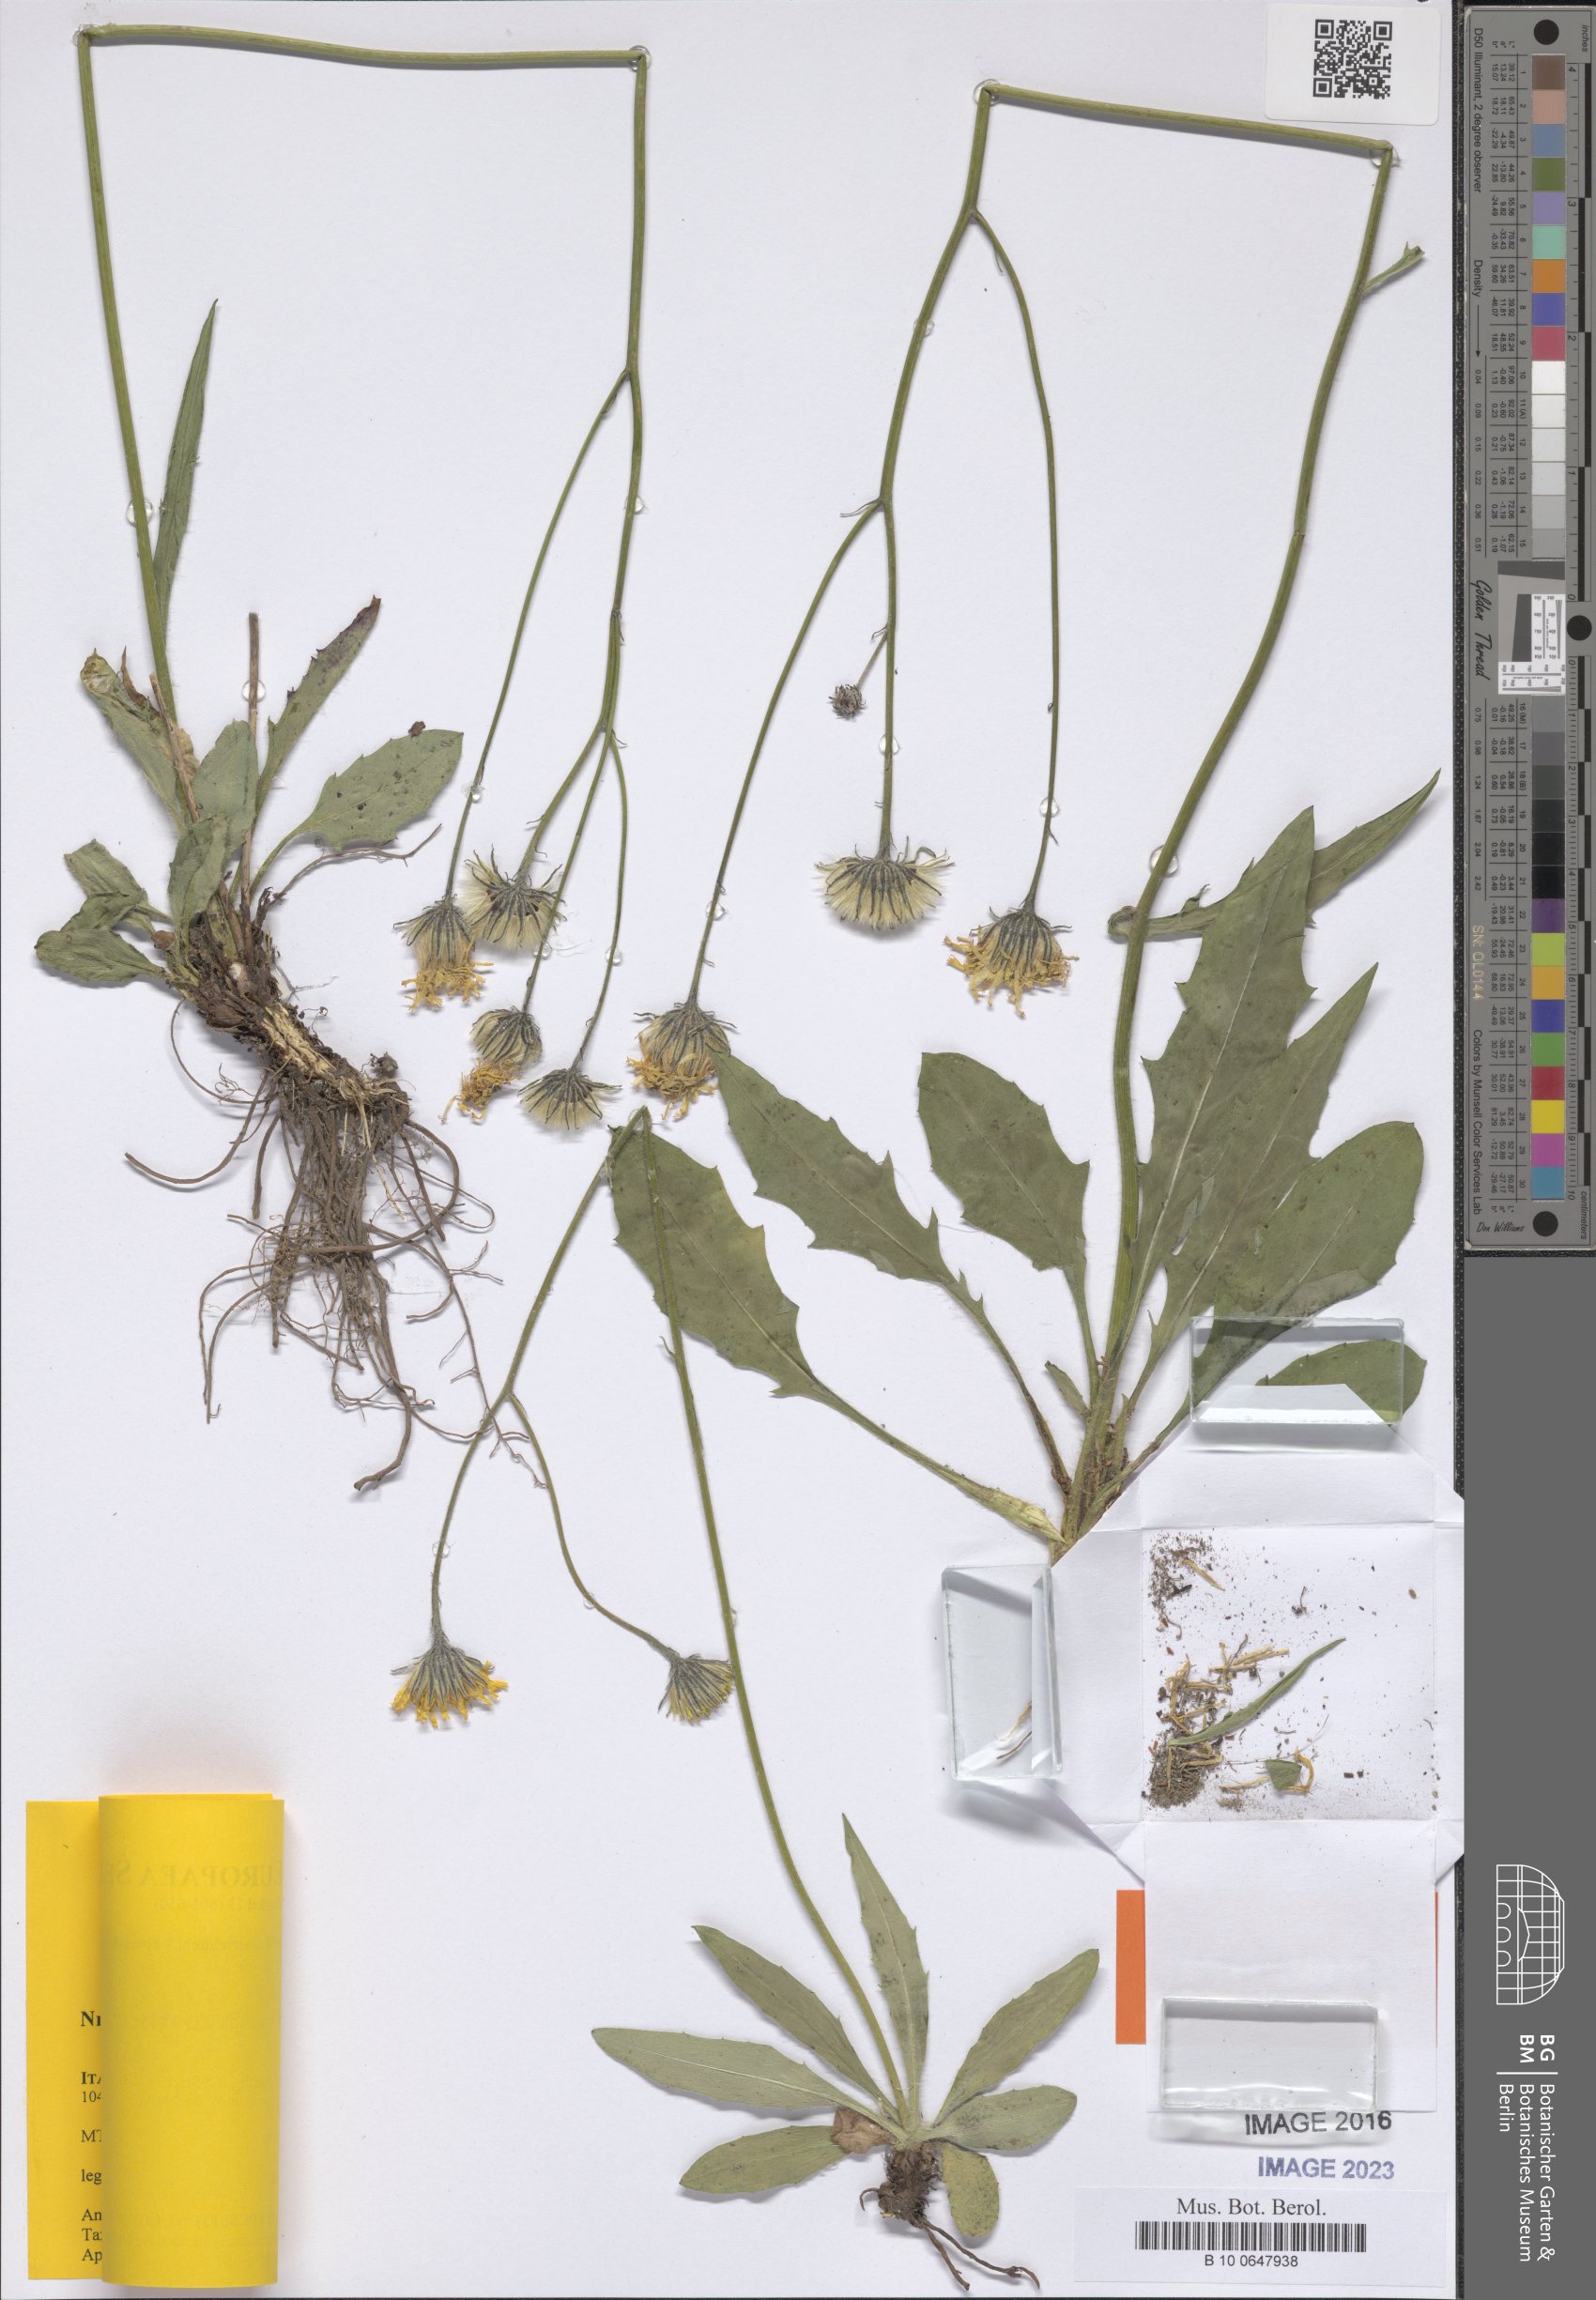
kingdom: Plantae
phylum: Tracheophyta
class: Magnoliopsida
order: Asterales
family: Asteraceae
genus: Hieracium
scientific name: Hieracium erucopsis
